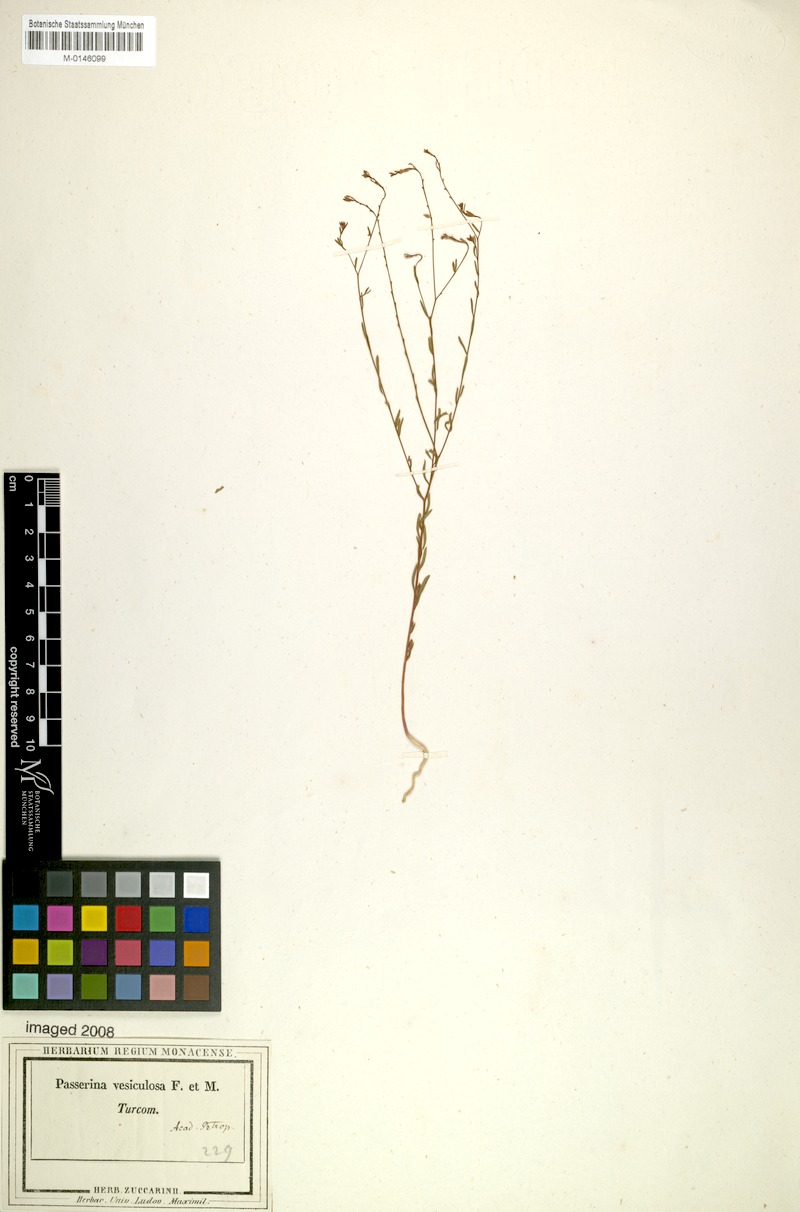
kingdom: Plantae
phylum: Tracheophyta
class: Magnoliopsida
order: Malvales
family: Thymelaeaceae
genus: Diarthron
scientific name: Diarthron vesiculosum
